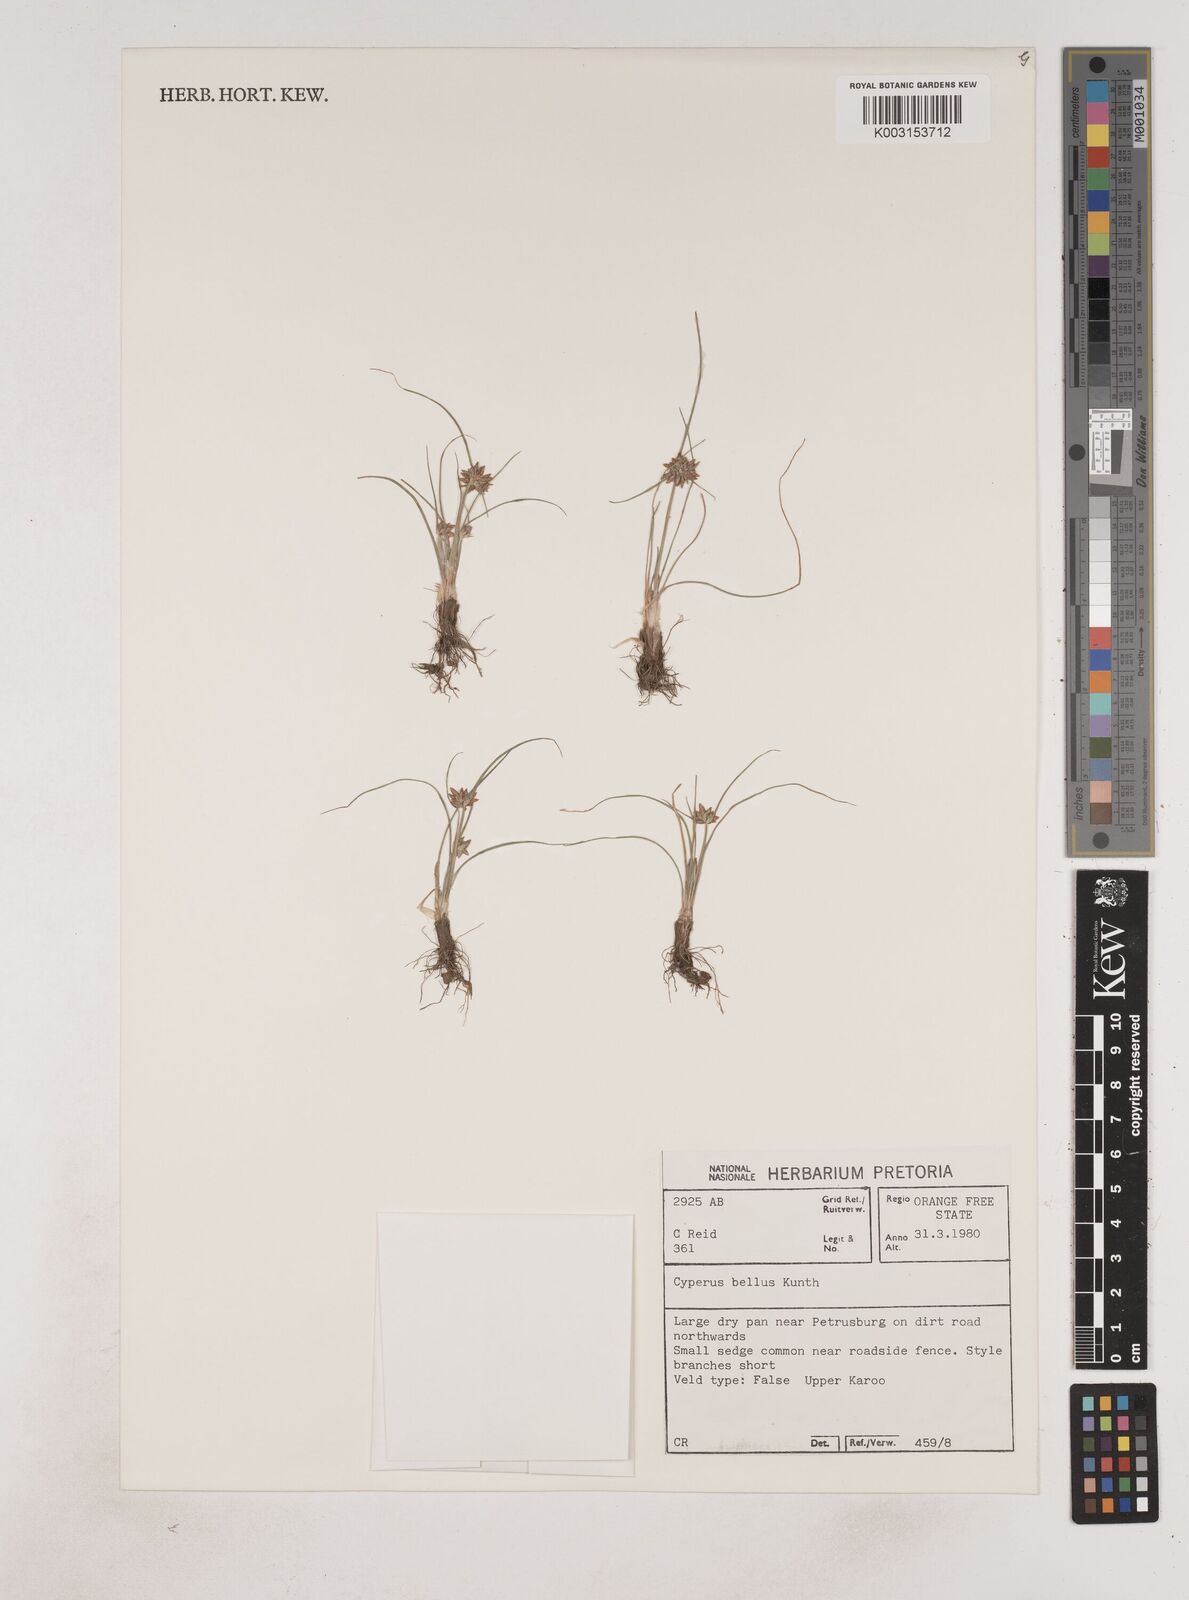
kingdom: Plantae
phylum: Tracheophyta
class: Liliopsida
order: Poales
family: Cyperaceae
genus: Cyperus
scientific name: Cyperus remotiflorus
